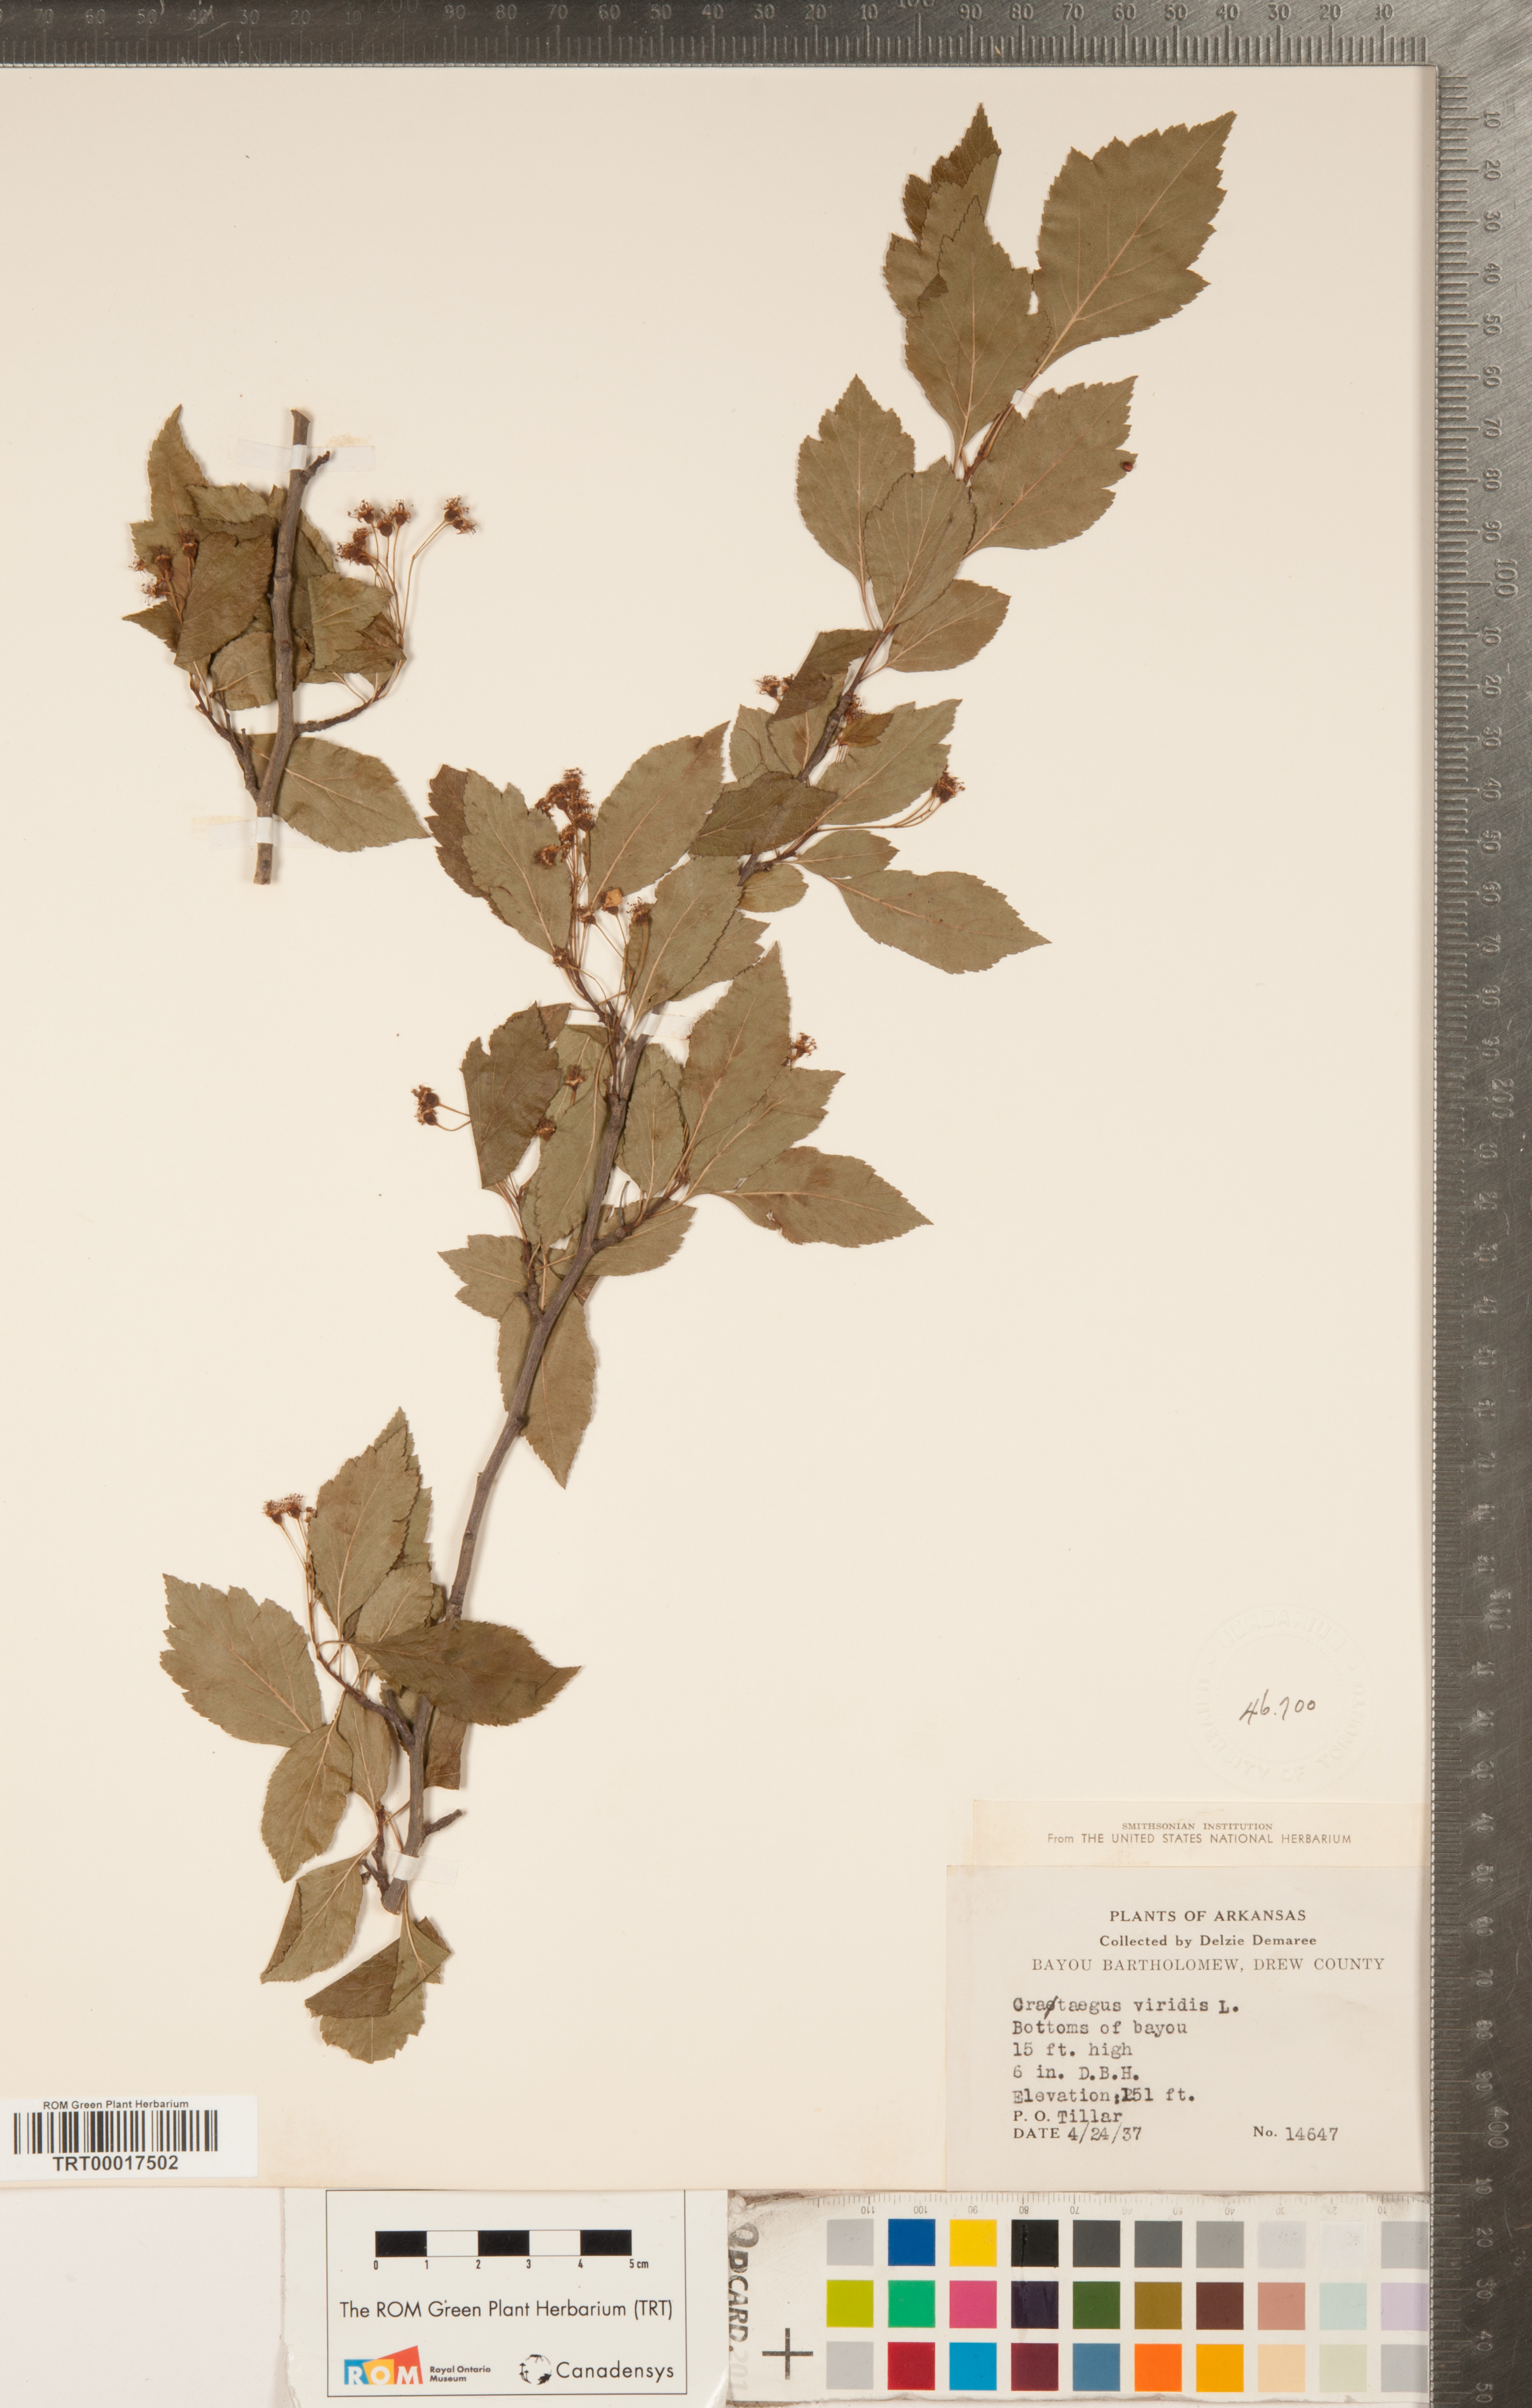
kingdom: Plantae
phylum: Tracheophyta
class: Magnoliopsida
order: Rosales
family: Rosaceae
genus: Crataegus
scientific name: Crataegus viridis
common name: Southernthorn
